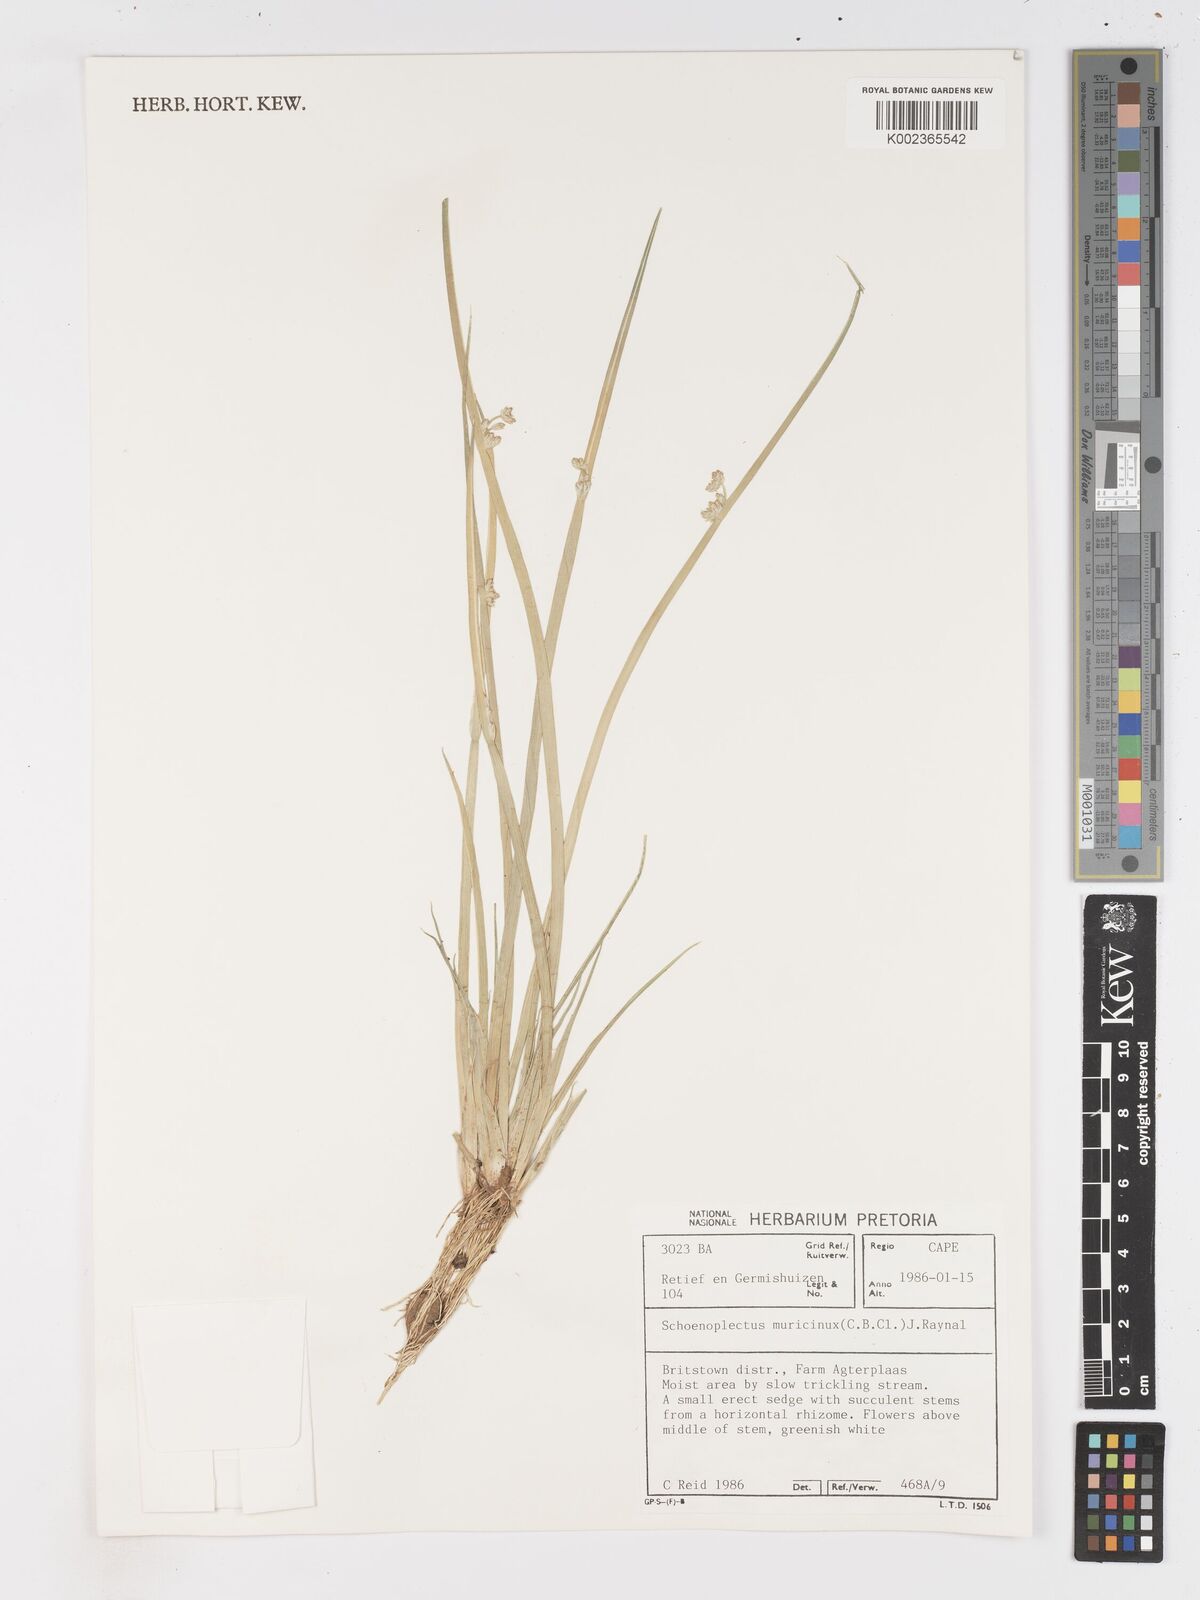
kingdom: Plantae
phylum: Tracheophyta
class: Liliopsida
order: Poales
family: Cyperaceae
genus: Schoenoplectiella
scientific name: Schoenoplectiella muricinux
